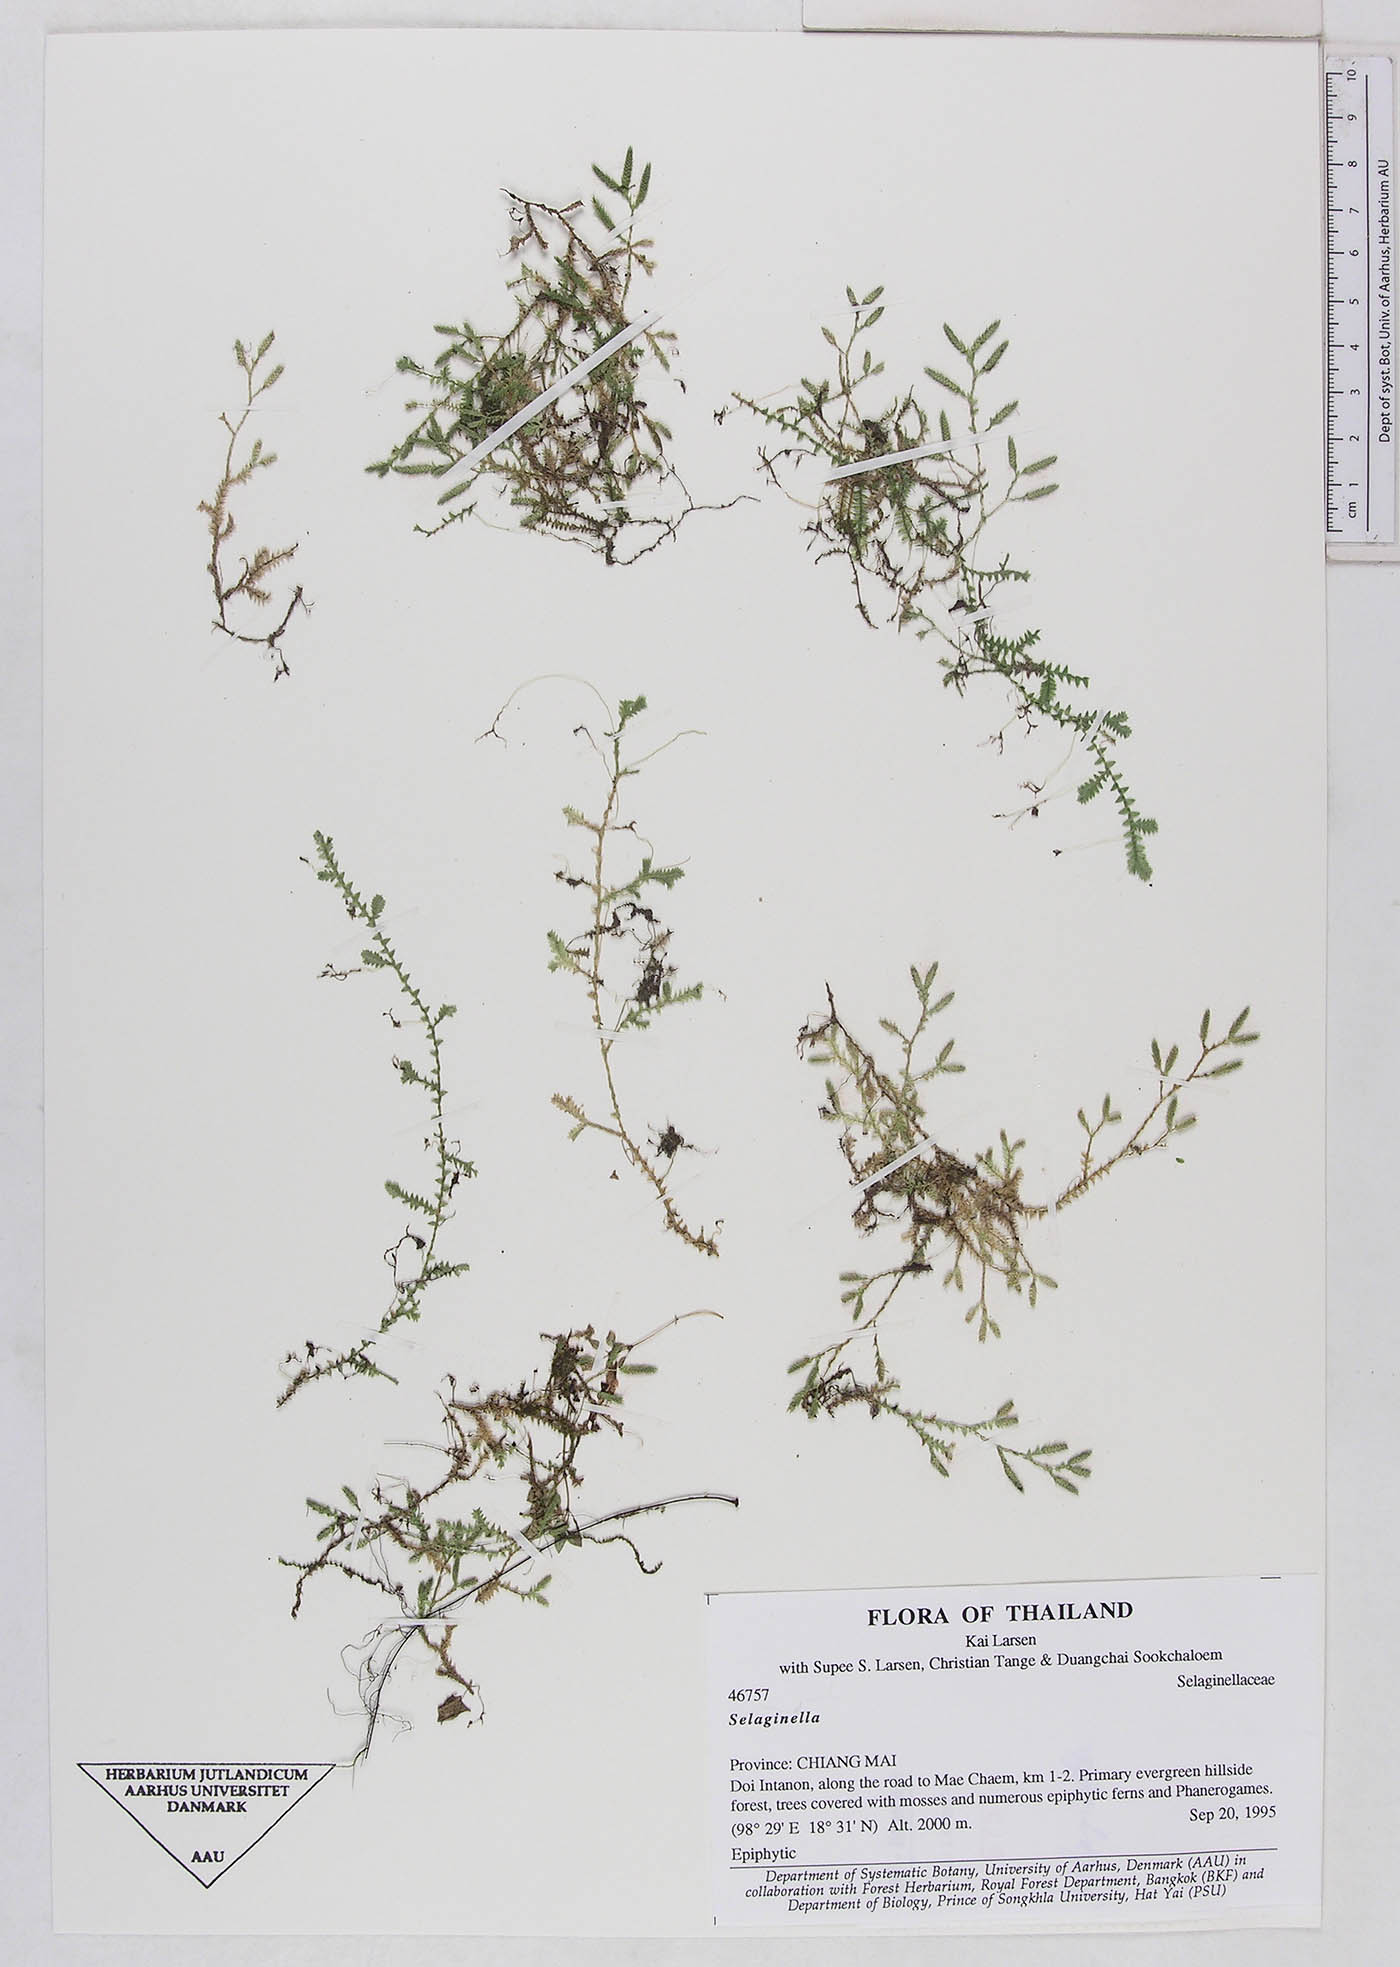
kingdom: Plantae
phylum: Tracheophyta
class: Lycopodiopsida
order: Selaginellales
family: Selaginellaceae
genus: Selaginella
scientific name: Selaginella
